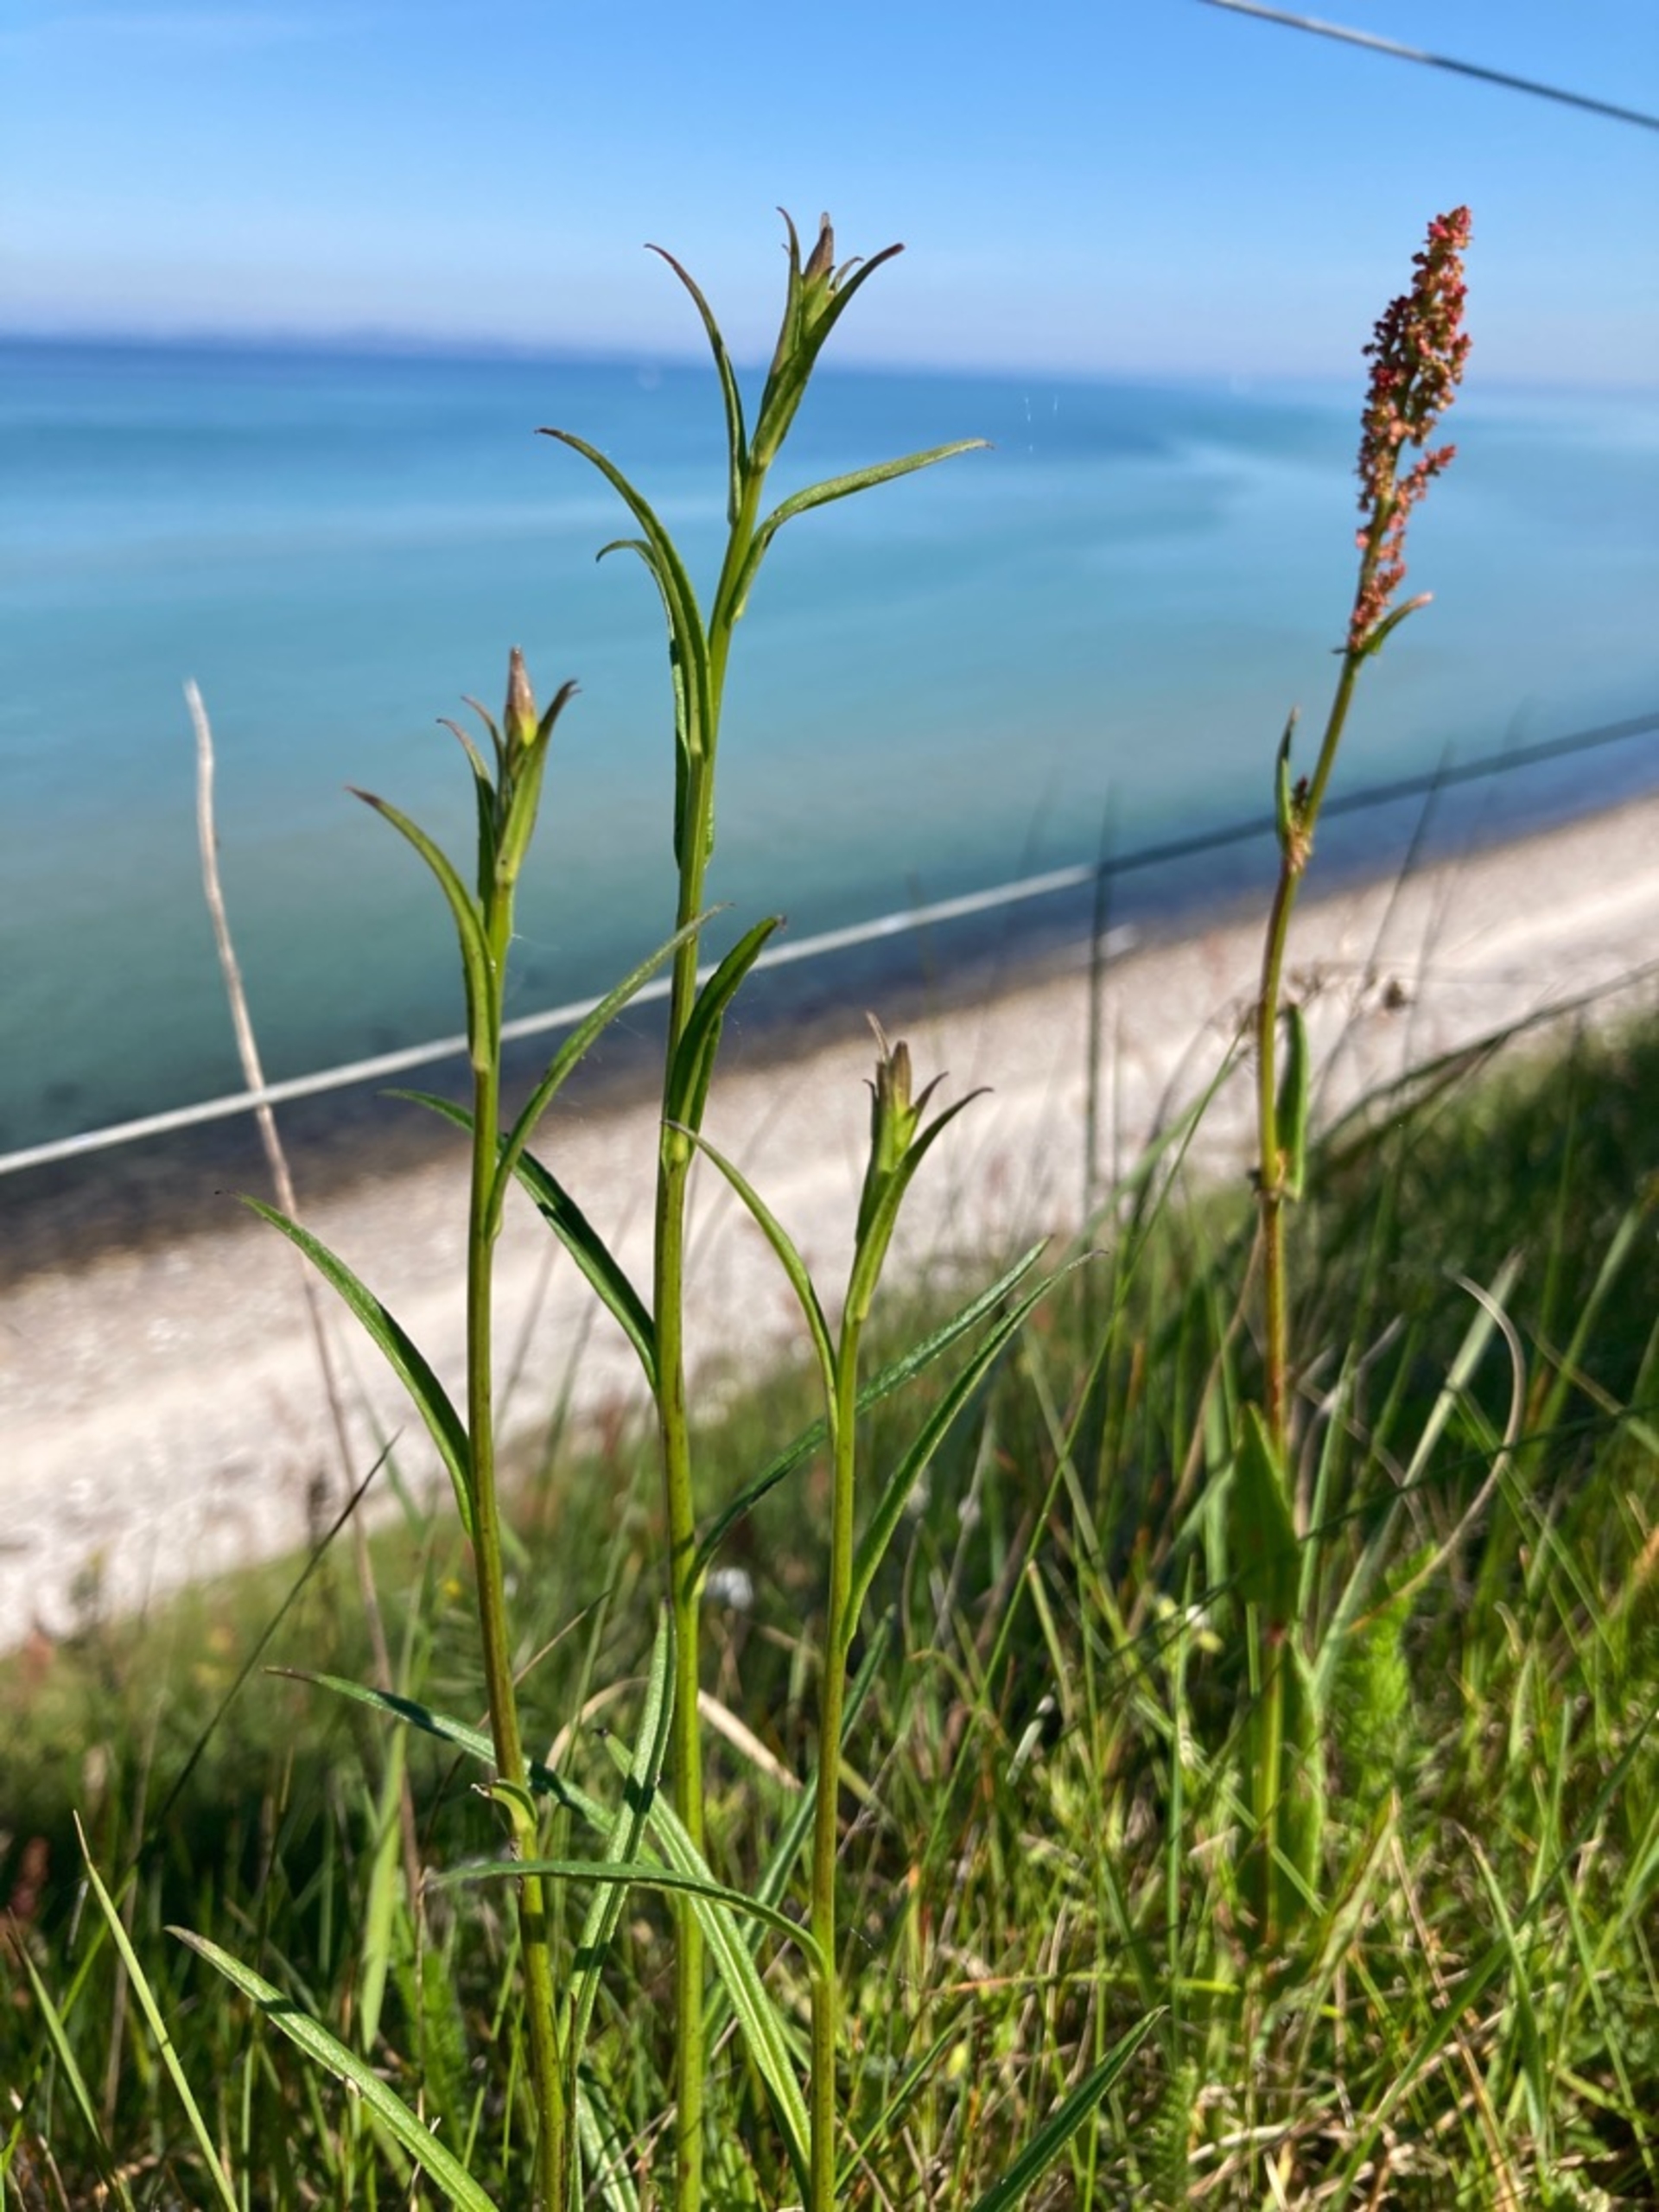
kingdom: Plantae
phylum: Tracheophyta
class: Magnoliopsida
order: Asterales
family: Campanulaceae
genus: Campanula
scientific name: Campanula persicifolia
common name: Smalbladet klokke
